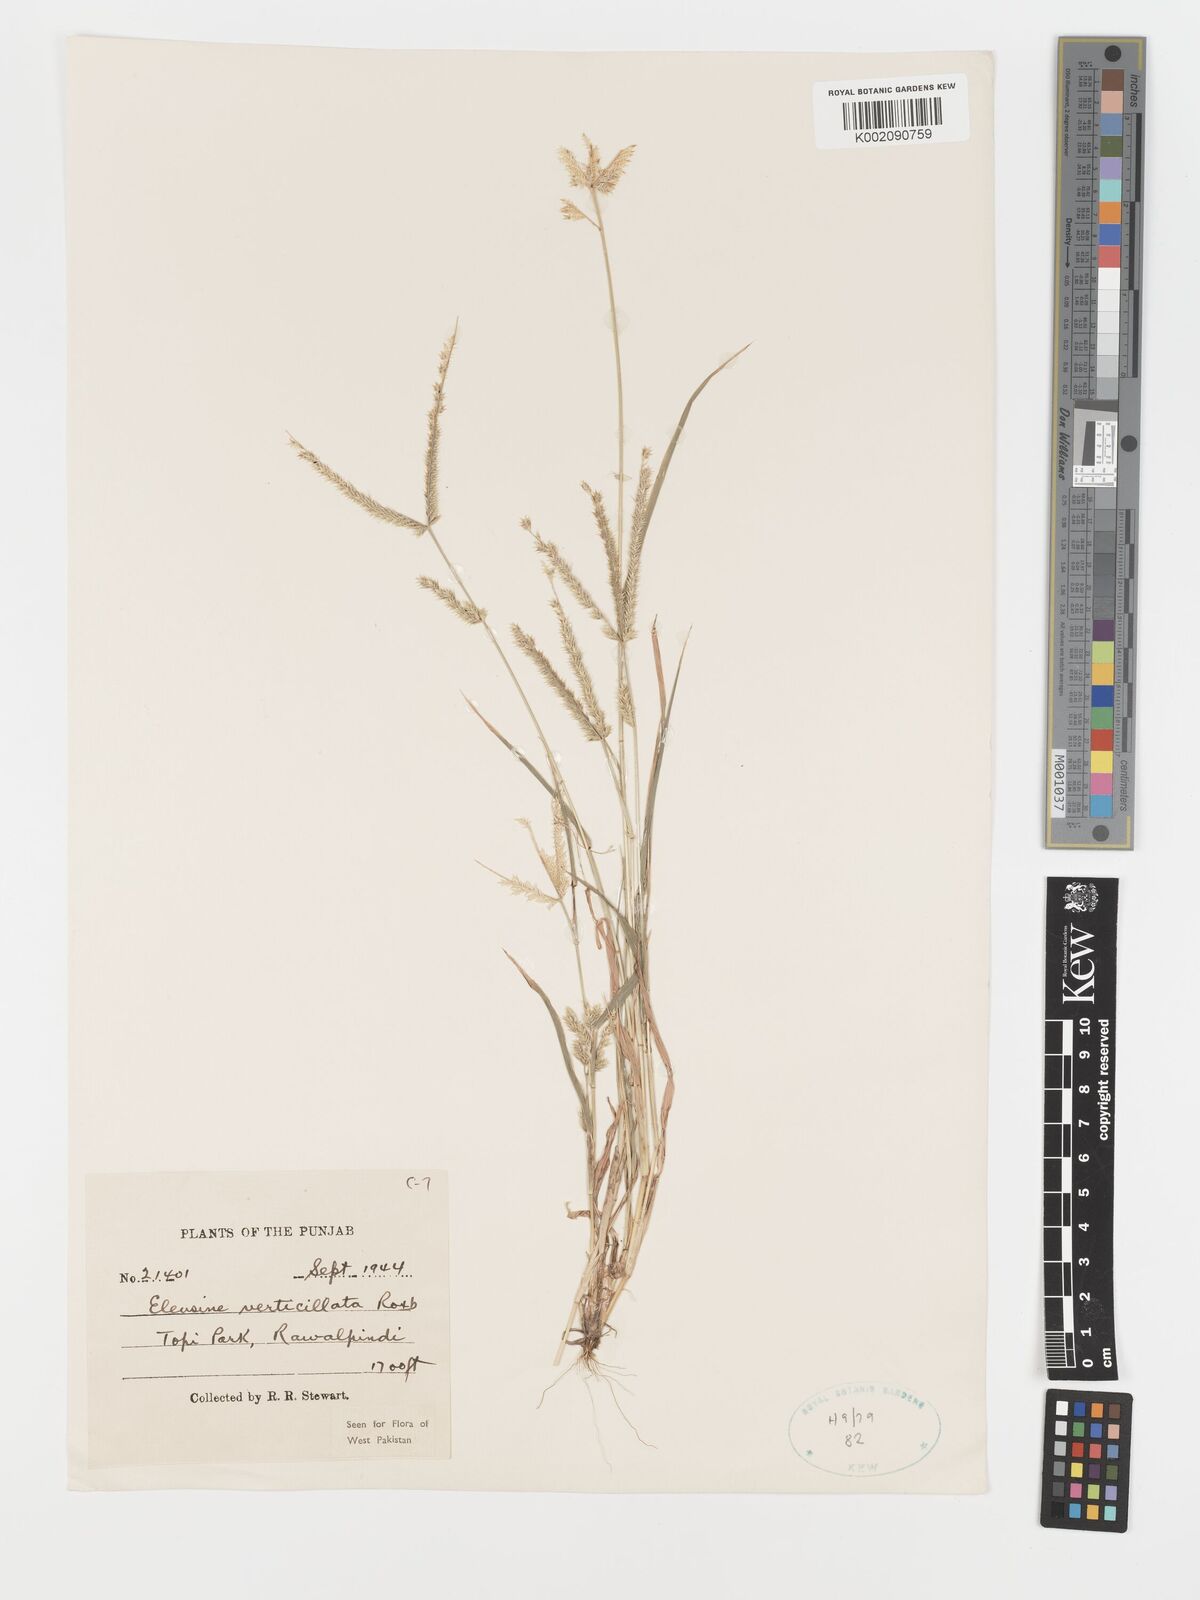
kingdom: Plantae
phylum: Tracheophyta
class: Liliopsida
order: Poales
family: Poaceae
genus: Acrachne
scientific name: Acrachne racemosa
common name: Goosegrass
